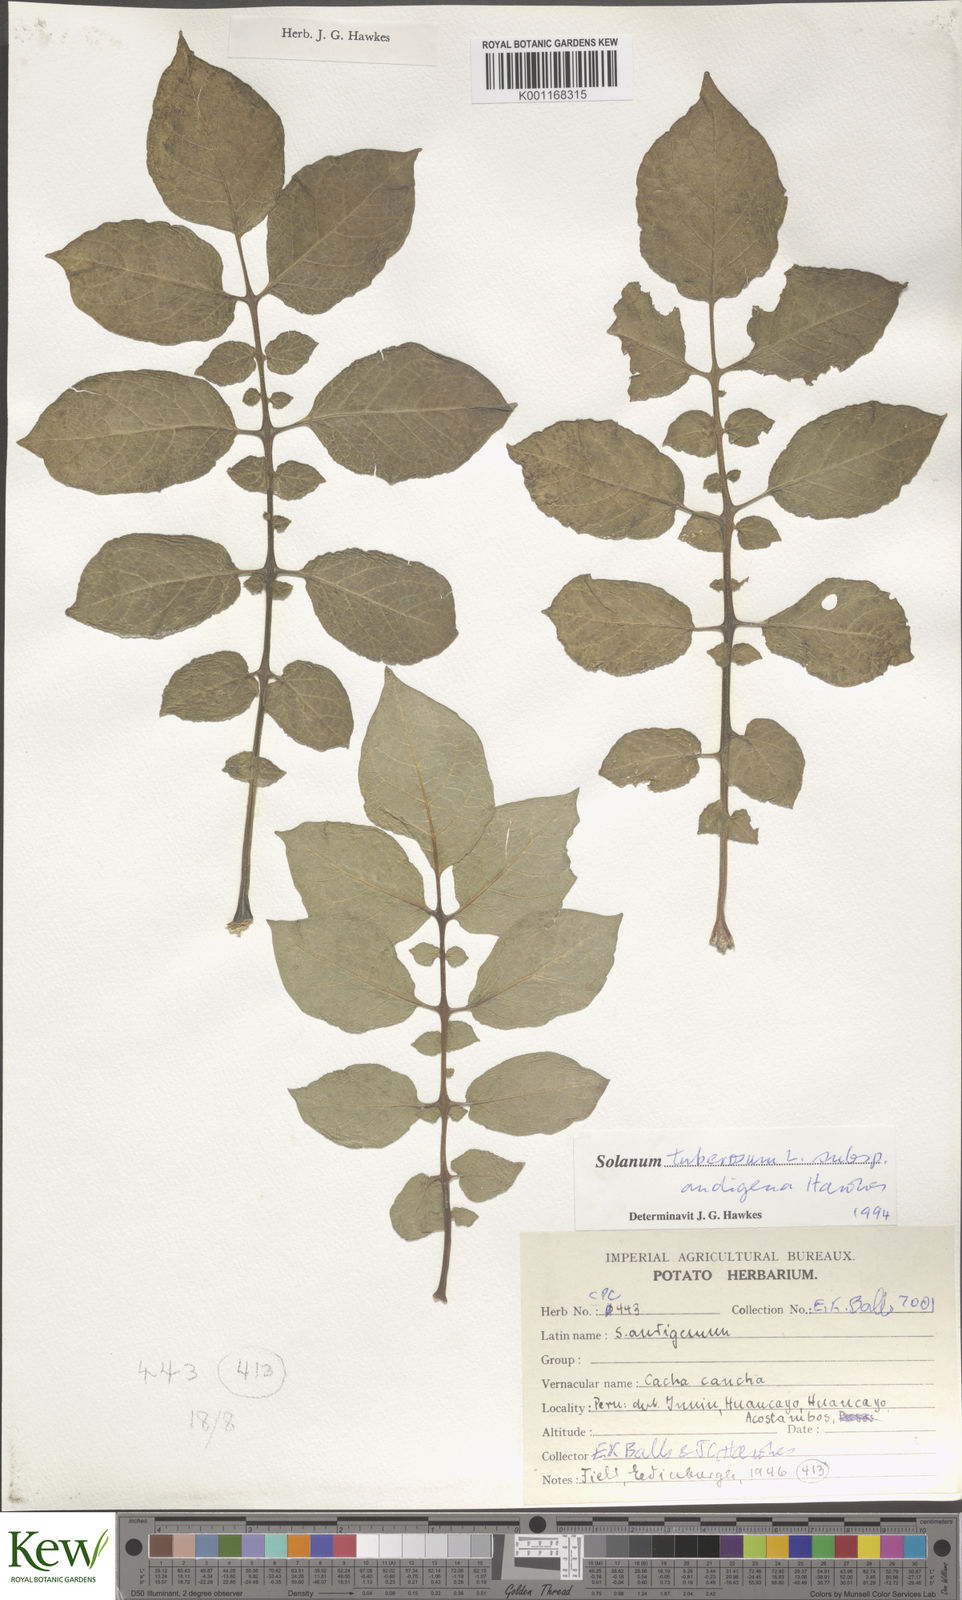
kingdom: Plantae
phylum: Tracheophyta
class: Magnoliopsida
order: Solanales
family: Solanaceae
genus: Solanum
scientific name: Solanum tuberosum
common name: Potato
